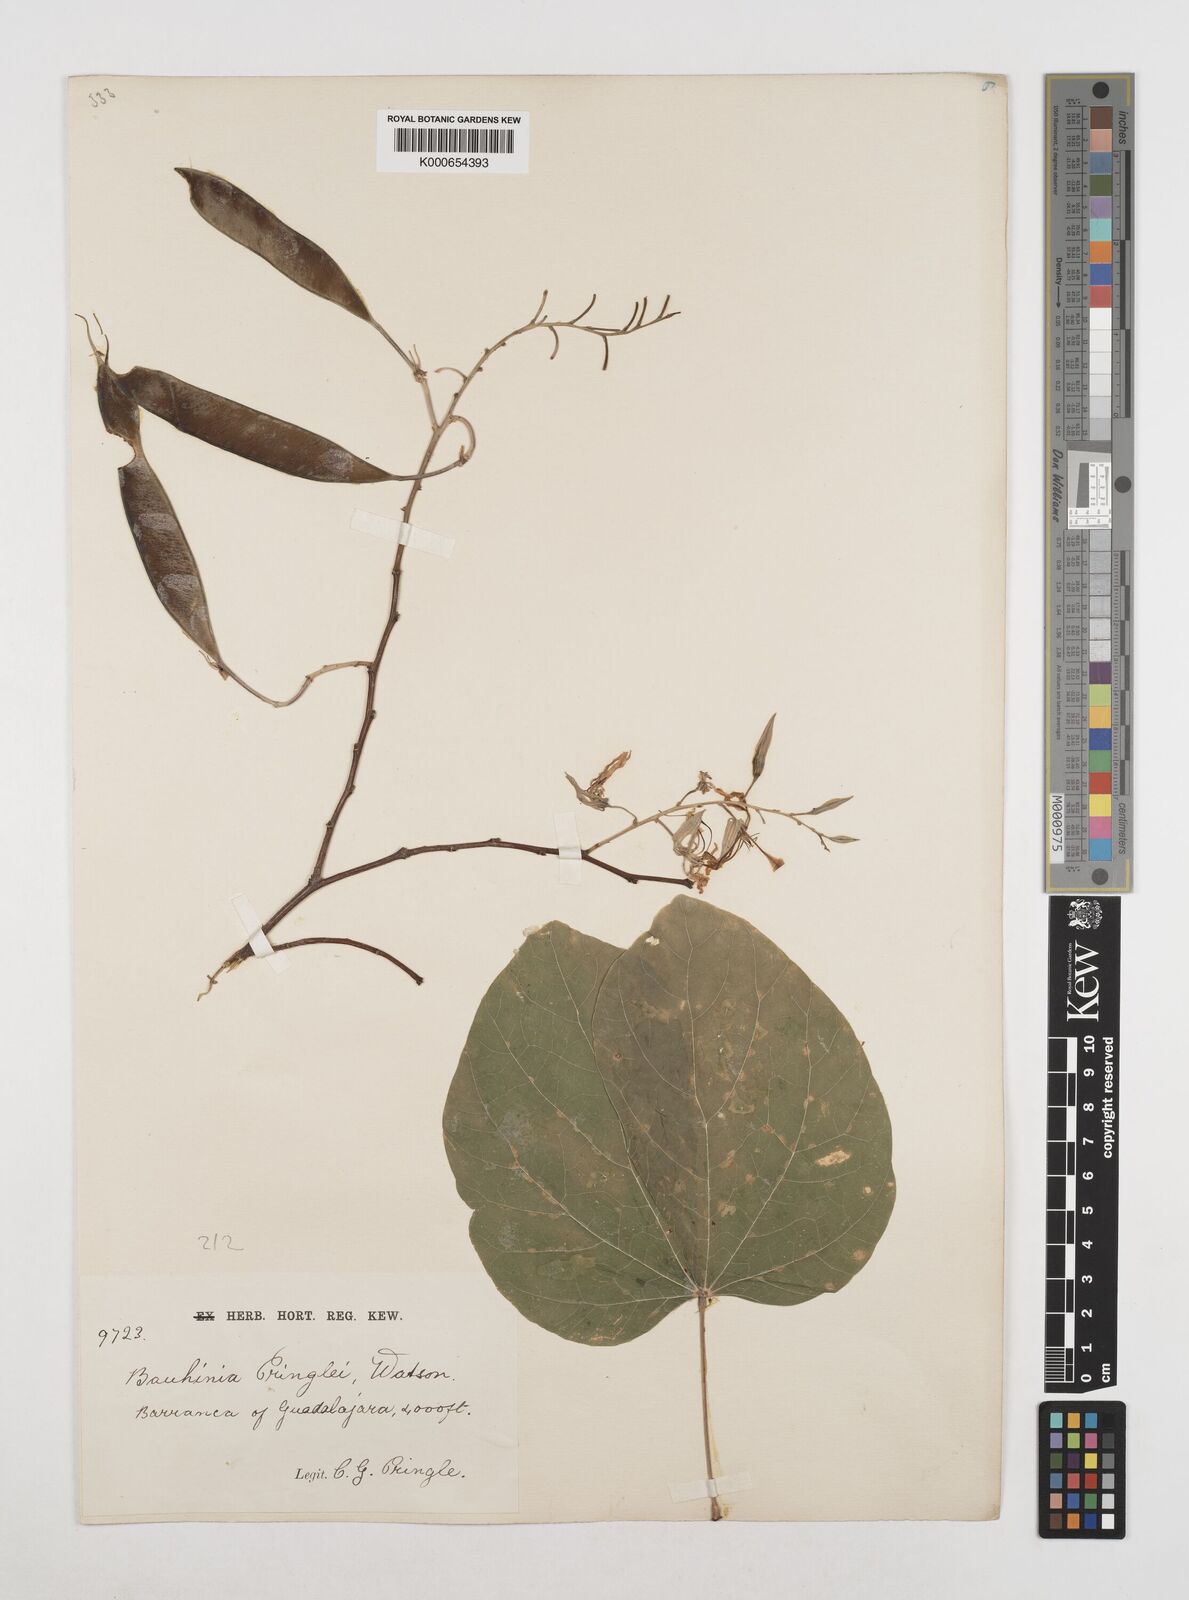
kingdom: Plantae
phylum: Tracheophyta
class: Magnoliopsida
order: Fabales
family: Fabaceae
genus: Bauhinia
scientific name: Bauhinia pringlei
